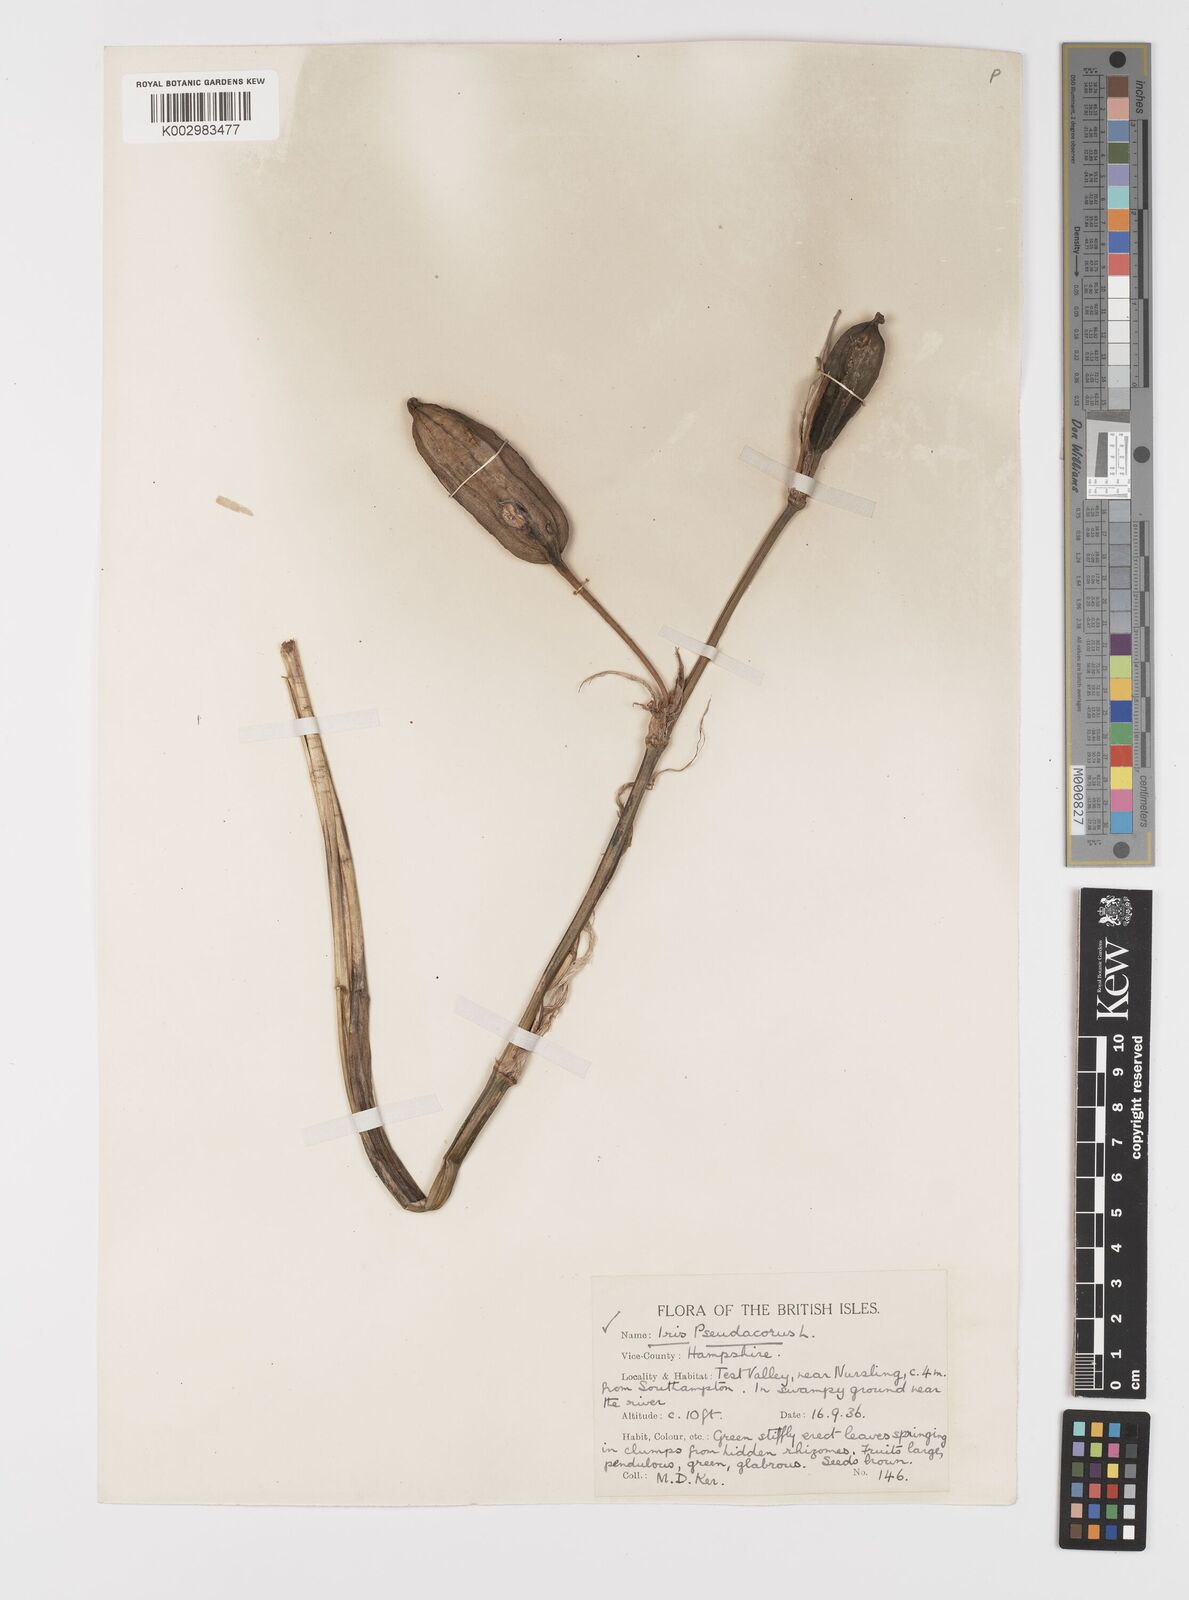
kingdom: Plantae
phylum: Tracheophyta
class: Liliopsida
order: Asparagales
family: Iridaceae
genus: Iris
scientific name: Iris pseudacorus
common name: Yellow flag
